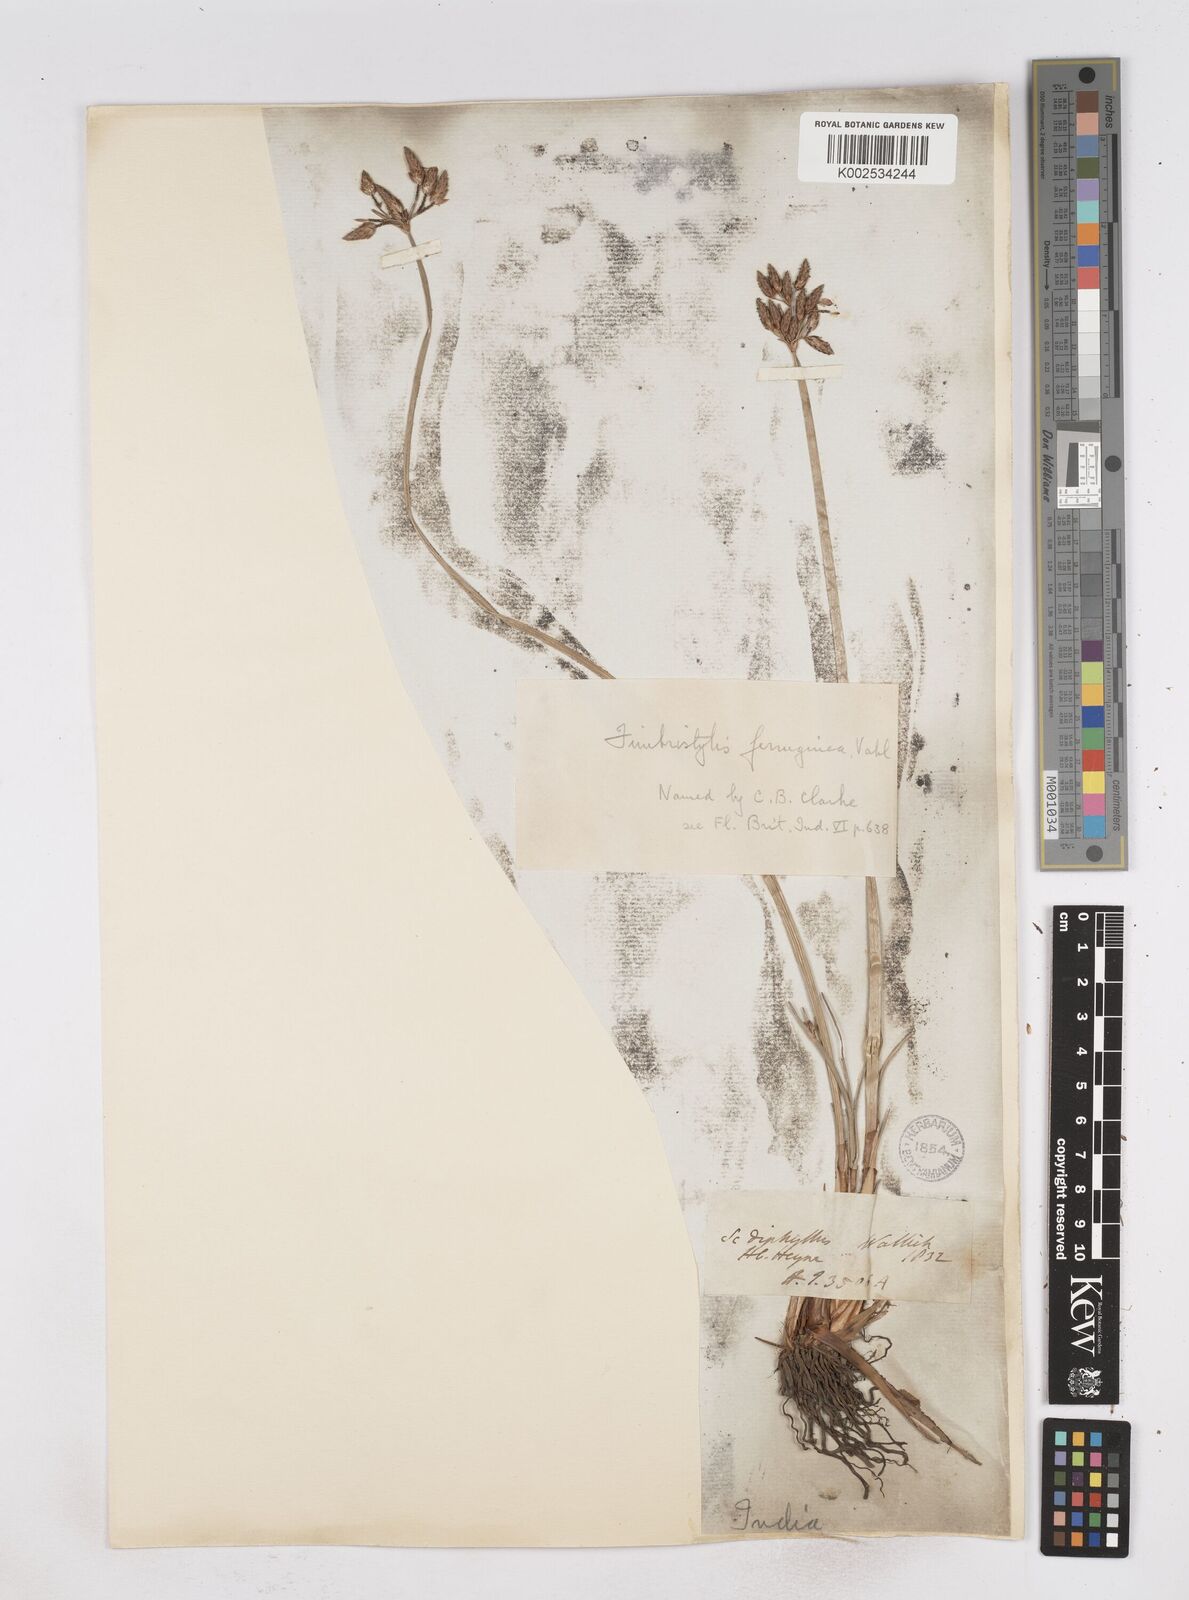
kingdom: Plantae
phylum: Tracheophyta
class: Liliopsida
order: Poales
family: Cyperaceae
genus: Fimbristylis
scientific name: Fimbristylis ferruginea
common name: West indian fimbry
